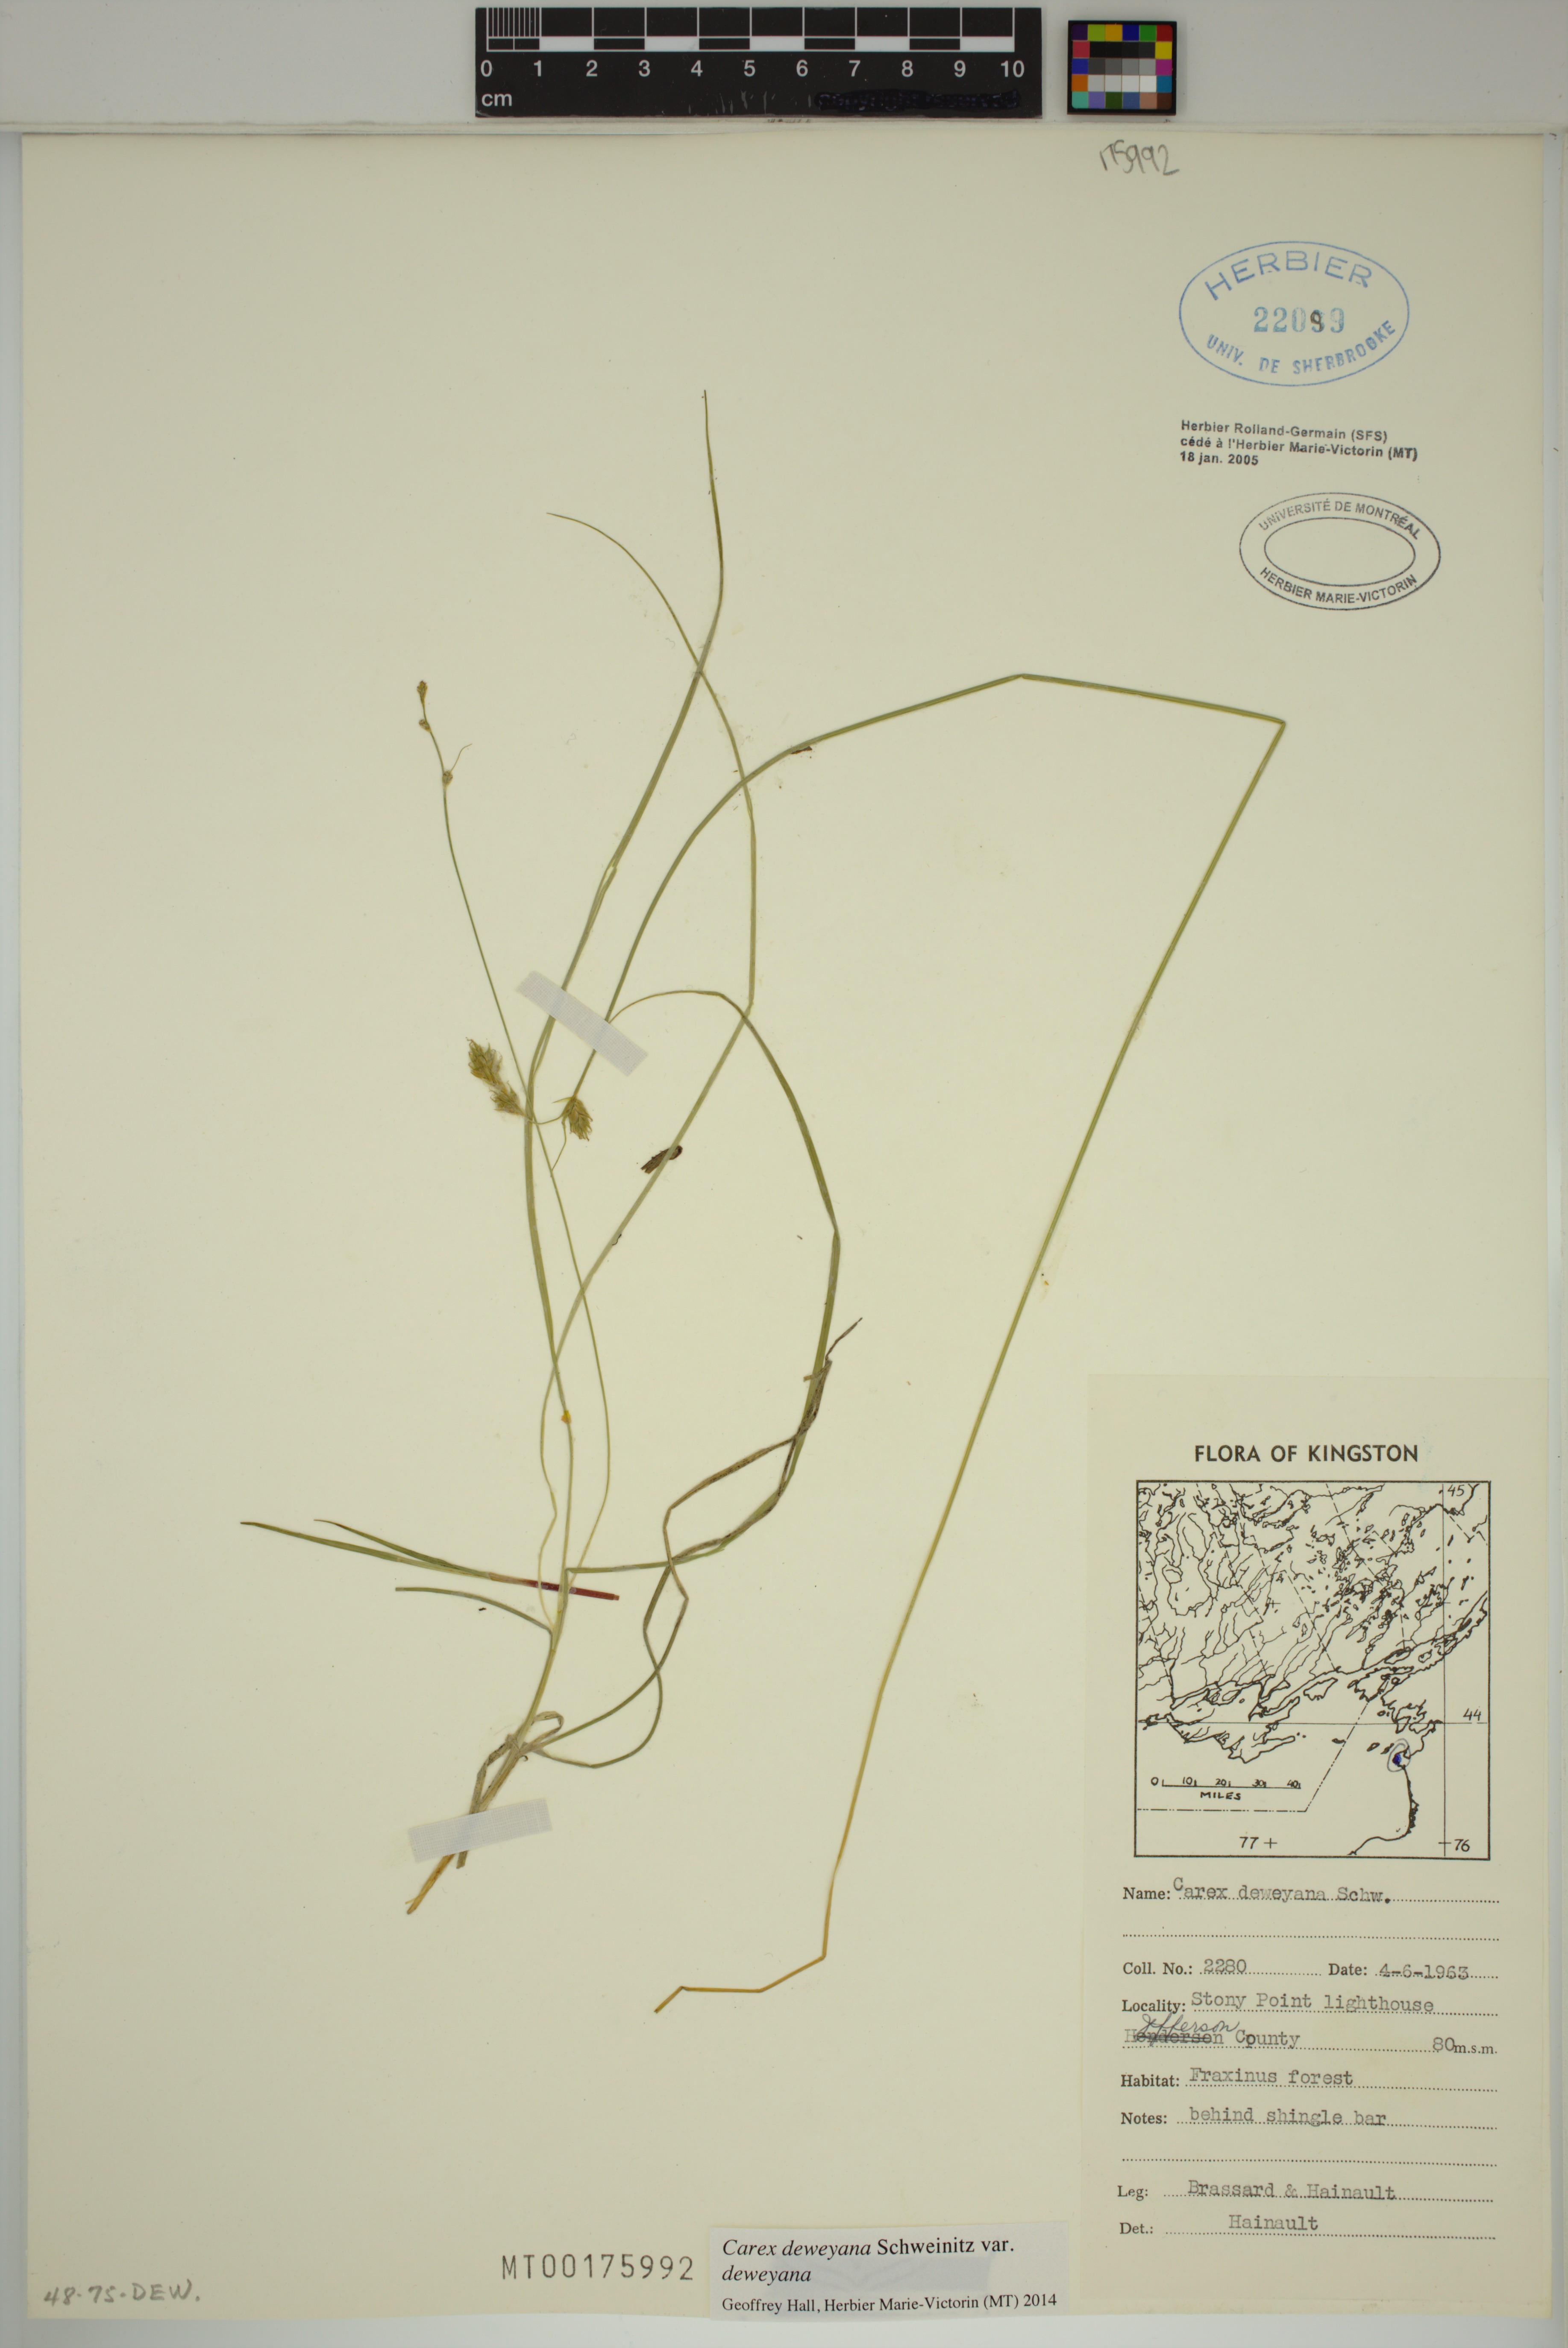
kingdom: Plantae
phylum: Tracheophyta
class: Liliopsida
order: Poales
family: Cyperaceae
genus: Carex
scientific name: Carex deweyana
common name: Dewey's sedge
